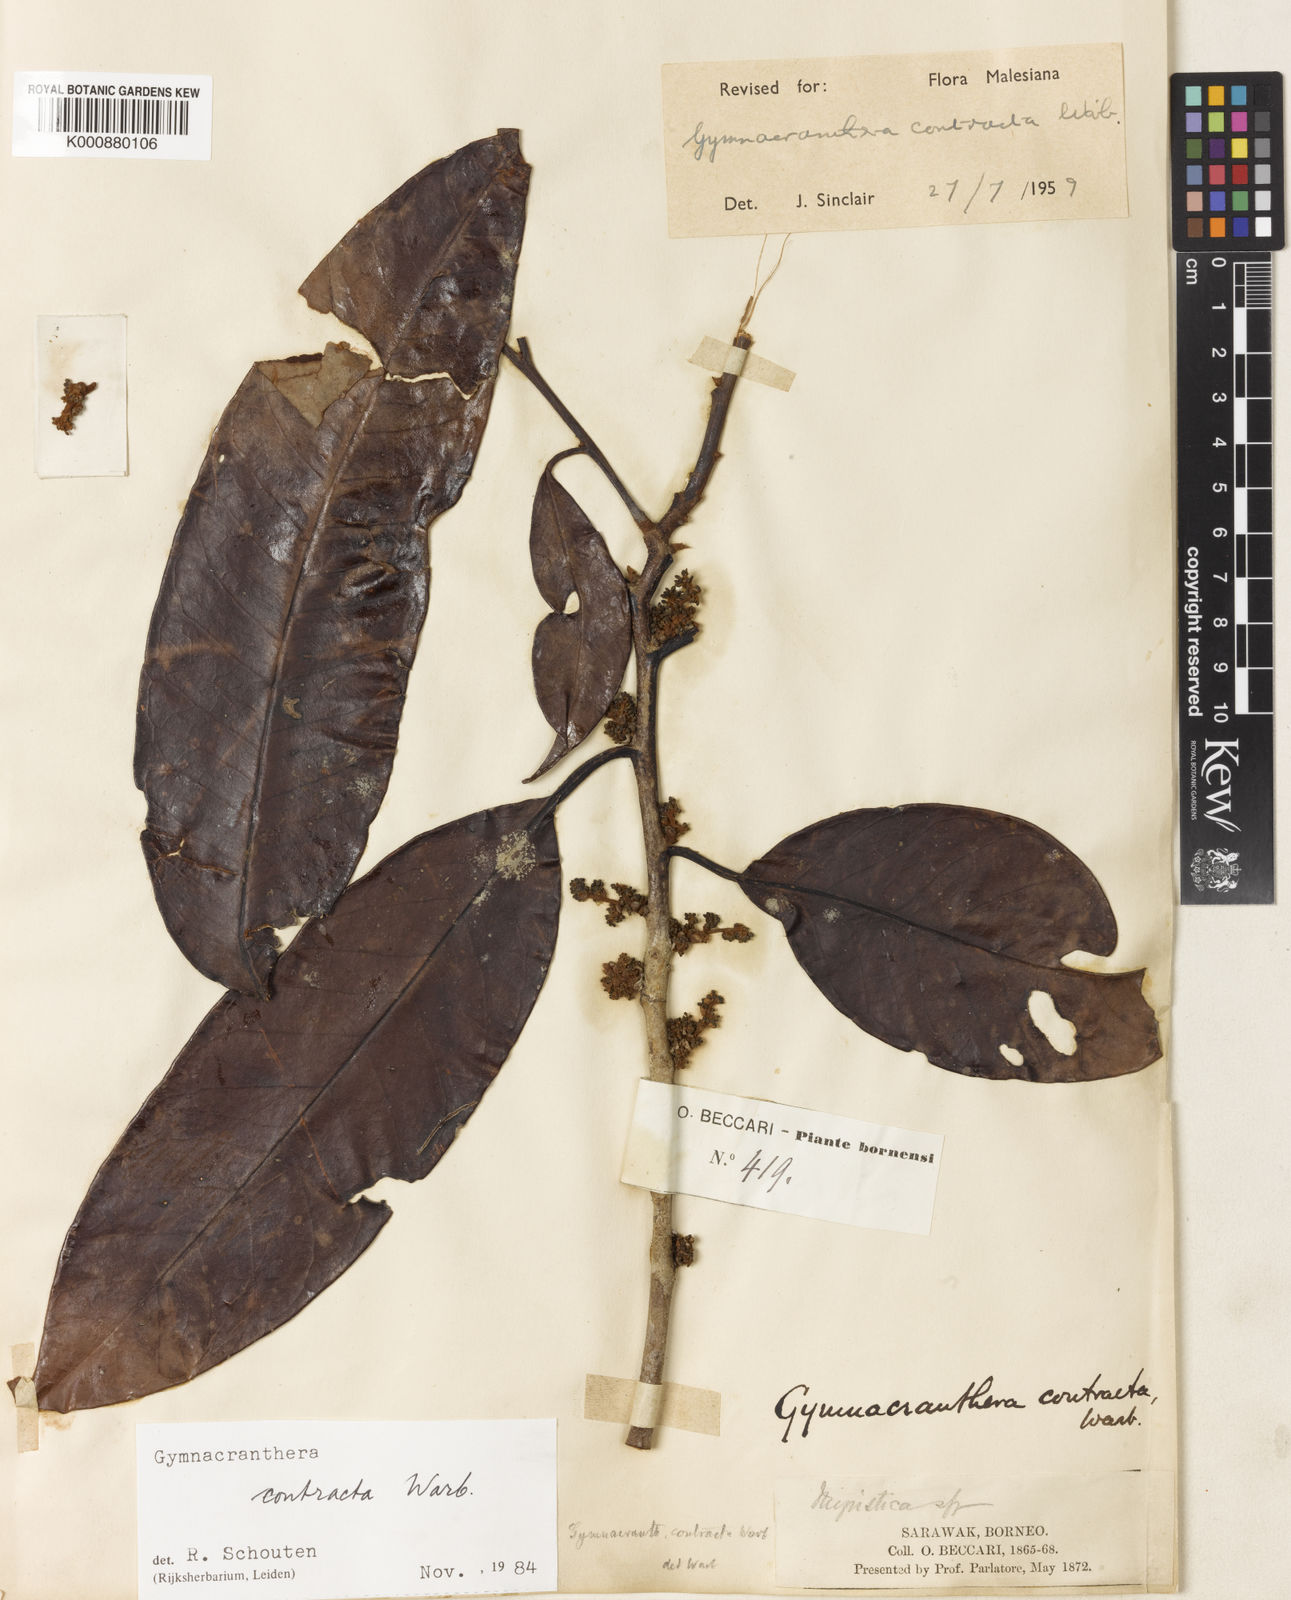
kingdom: Plantae
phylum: Tracheophyta
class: Magnoliopsida
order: Magnoliales
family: Myristicaceae
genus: Gymnacranthera
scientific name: Gymnacranthera contracta
